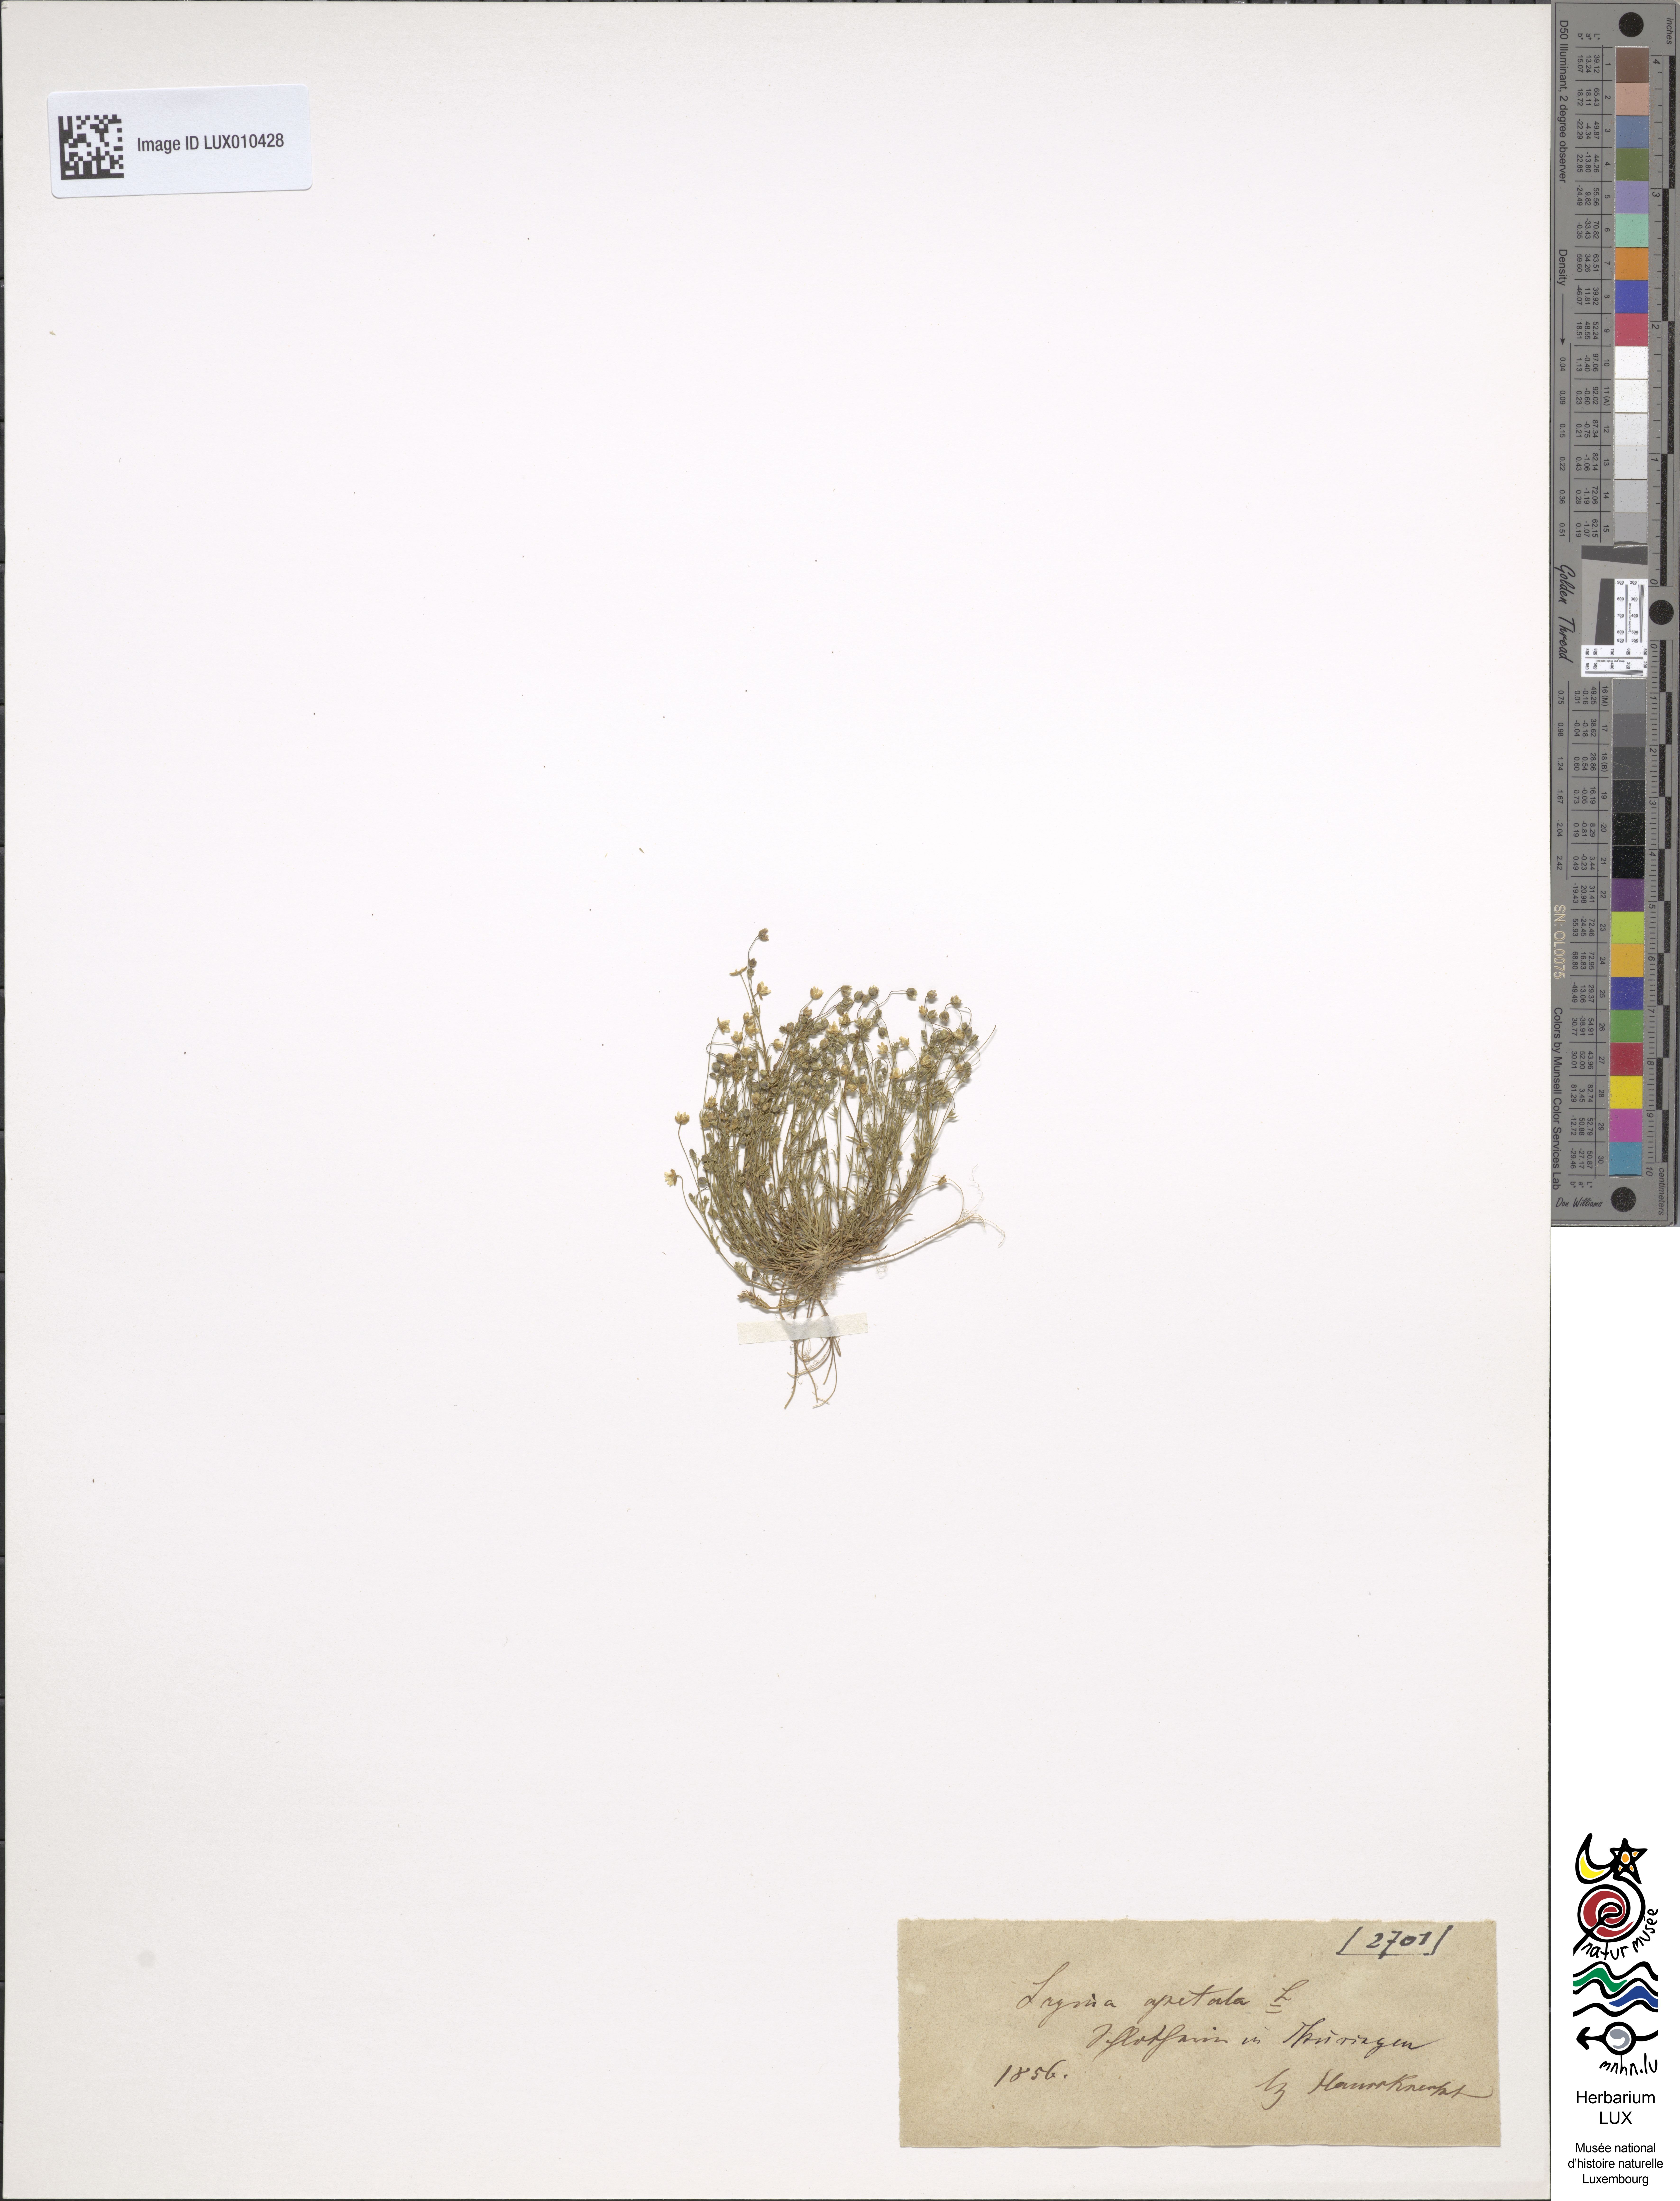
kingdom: Plantae
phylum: Tracheophyta
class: Magnoliopsida
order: Caryophyllales
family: Caryophyllaceae
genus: Sagina
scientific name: Sagina apetala
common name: Annual pearlwort
